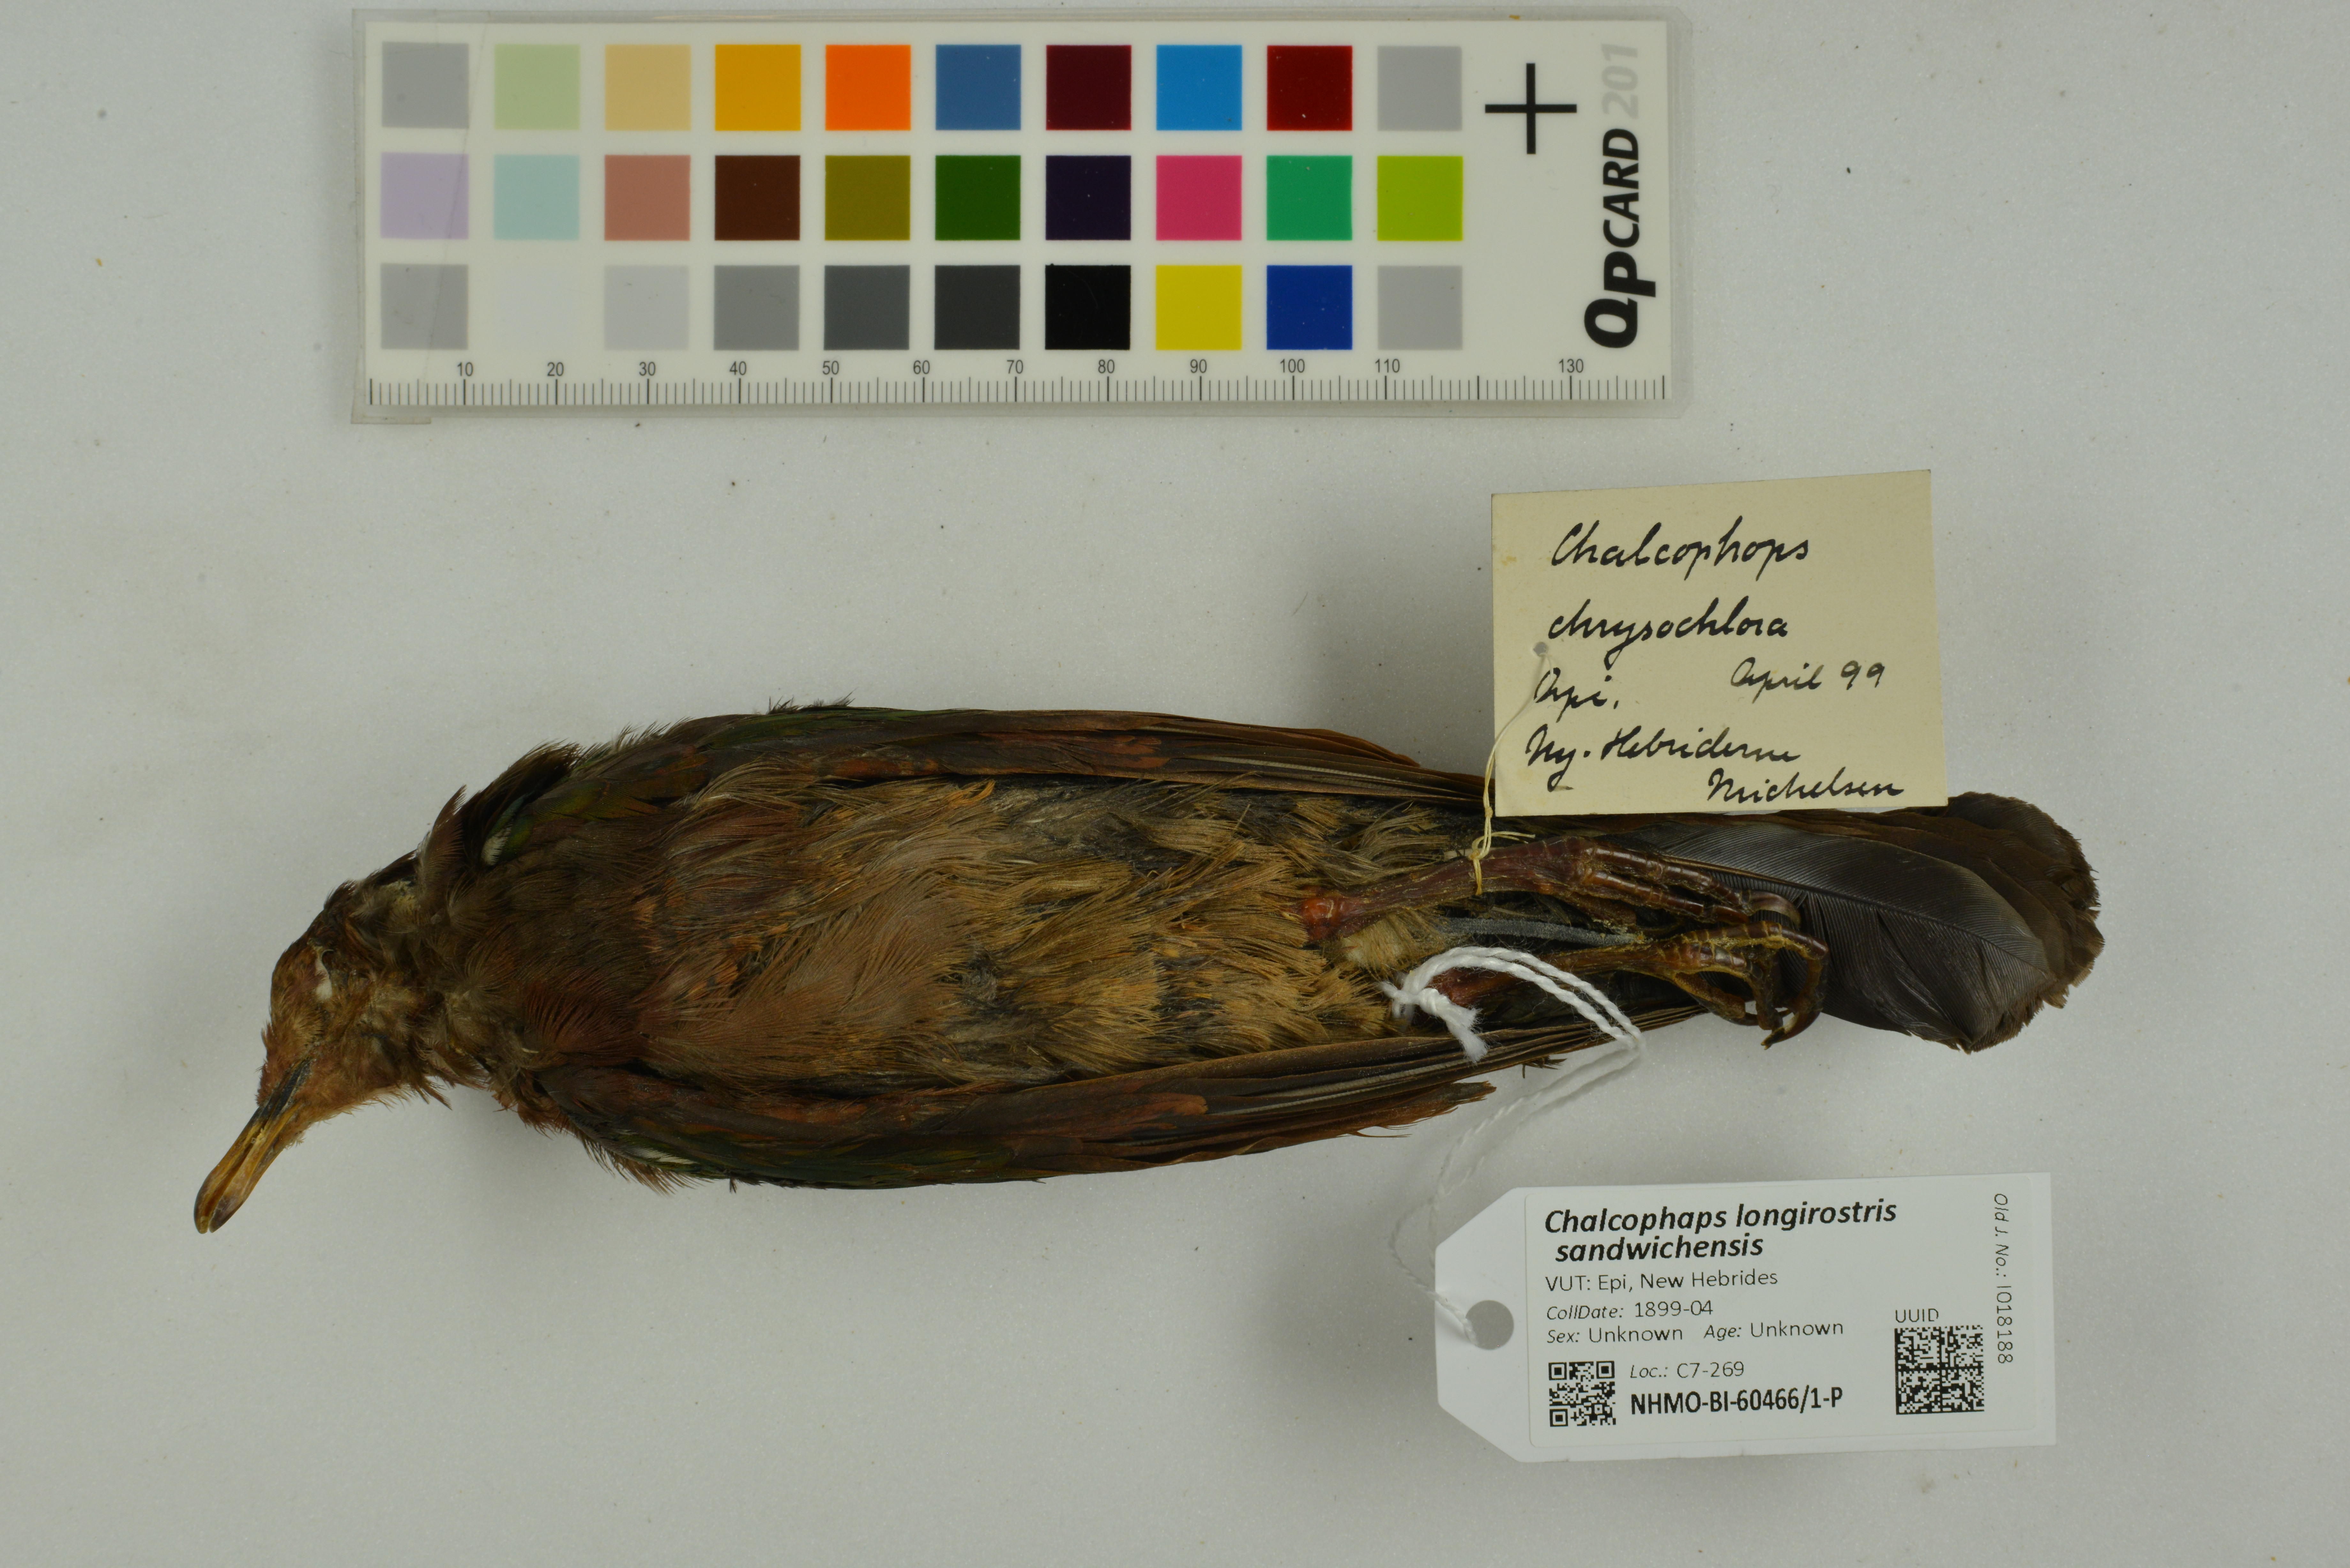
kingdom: Animalia
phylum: Chordata
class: Aves
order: Columbiformes
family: Columbidae
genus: Chalcophaps
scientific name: Chalcophaps longirostris
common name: Pacific emerald dove
